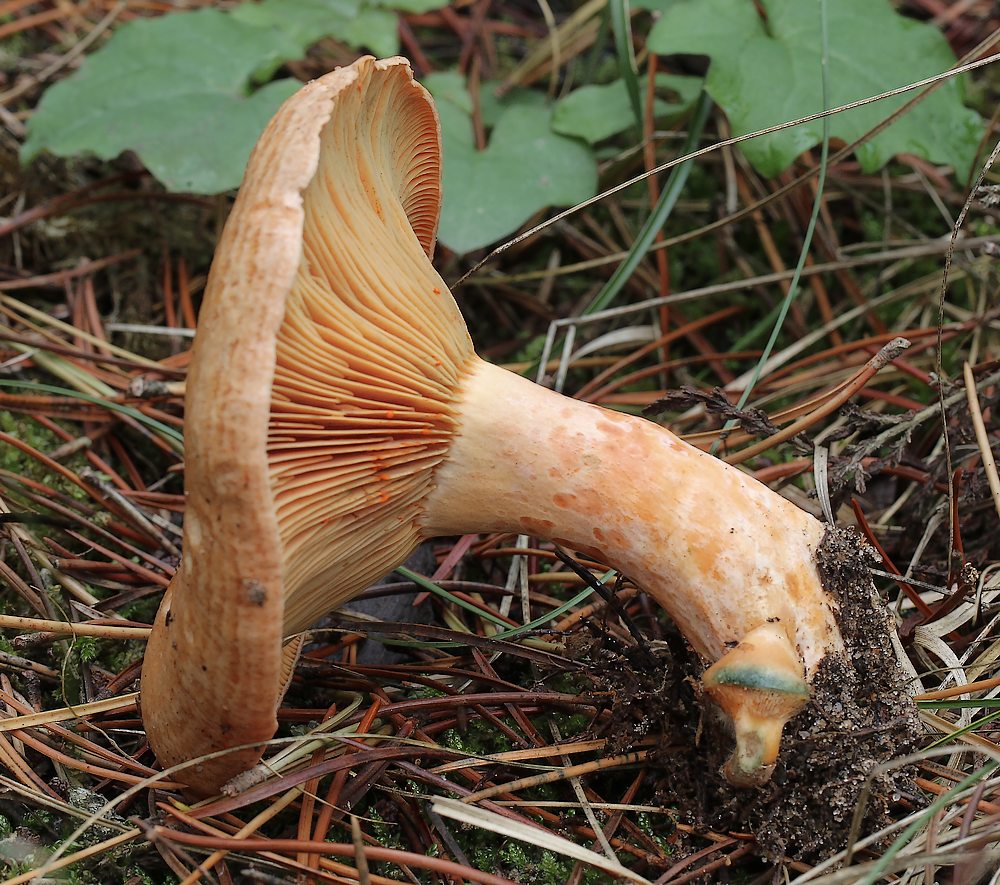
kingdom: Fungi
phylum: Basidiomycota
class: Agaricomycetes
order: Russulales
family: Russulaceae
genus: Lactarius
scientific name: Lactarius deliciosus
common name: velsmagende mælkehat
